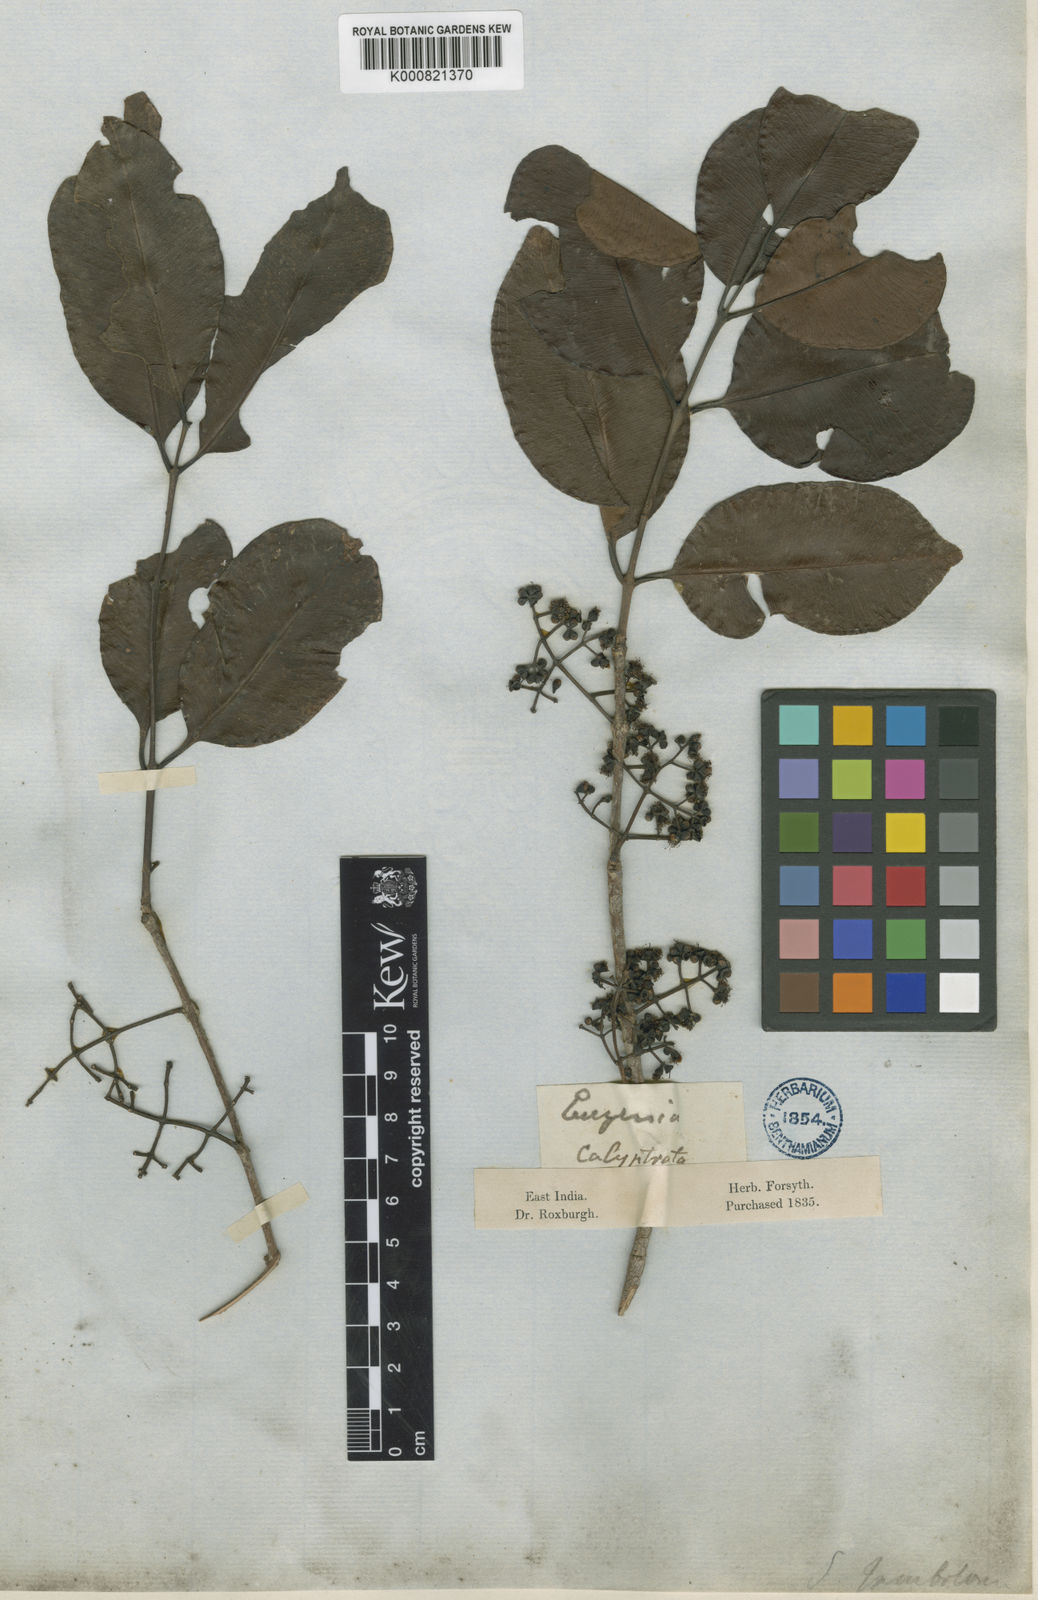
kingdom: Plantae
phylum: Tracheophyta
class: Magnoliopsida
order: Myrtales
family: Myrtaceae
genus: Syzygium
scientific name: Syzygium cumini
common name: Java plum
